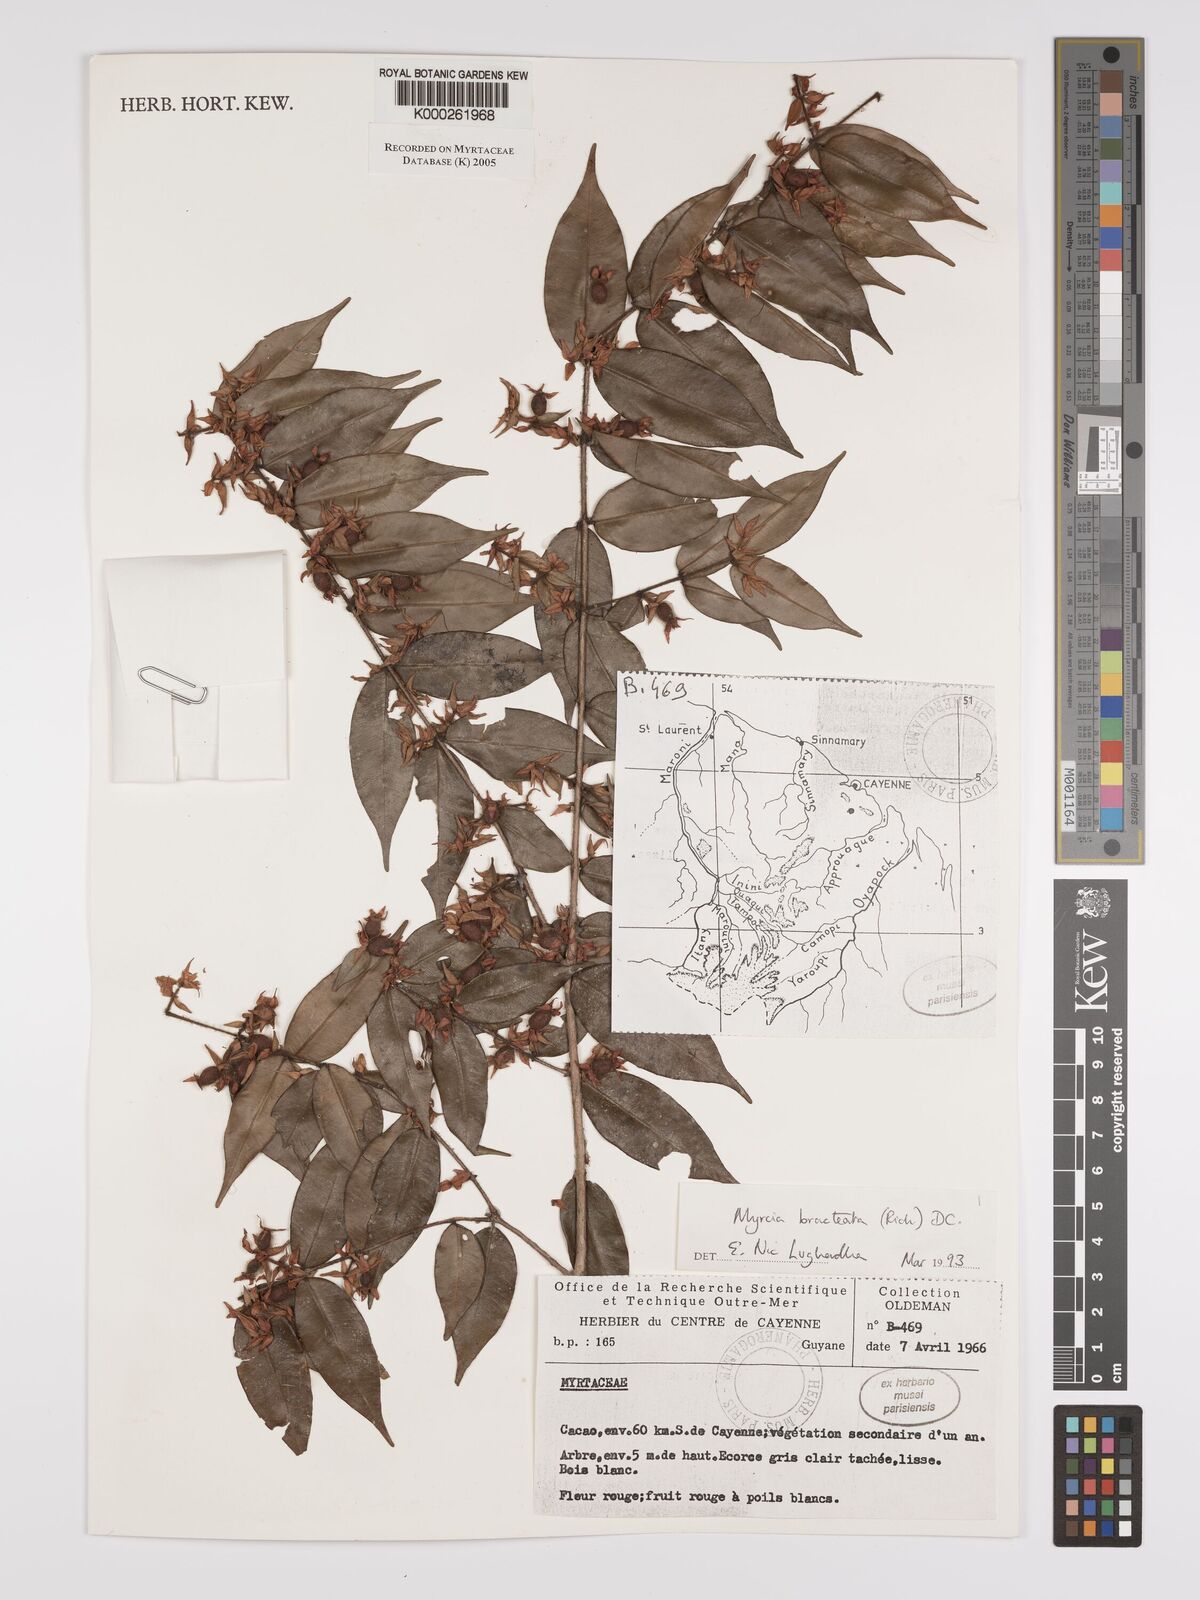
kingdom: Plantae
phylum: Tracheophyta
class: Magnoliopsida
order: Myrtales
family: Myrtaceae
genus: Myrcia
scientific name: Myrcia bracteata
